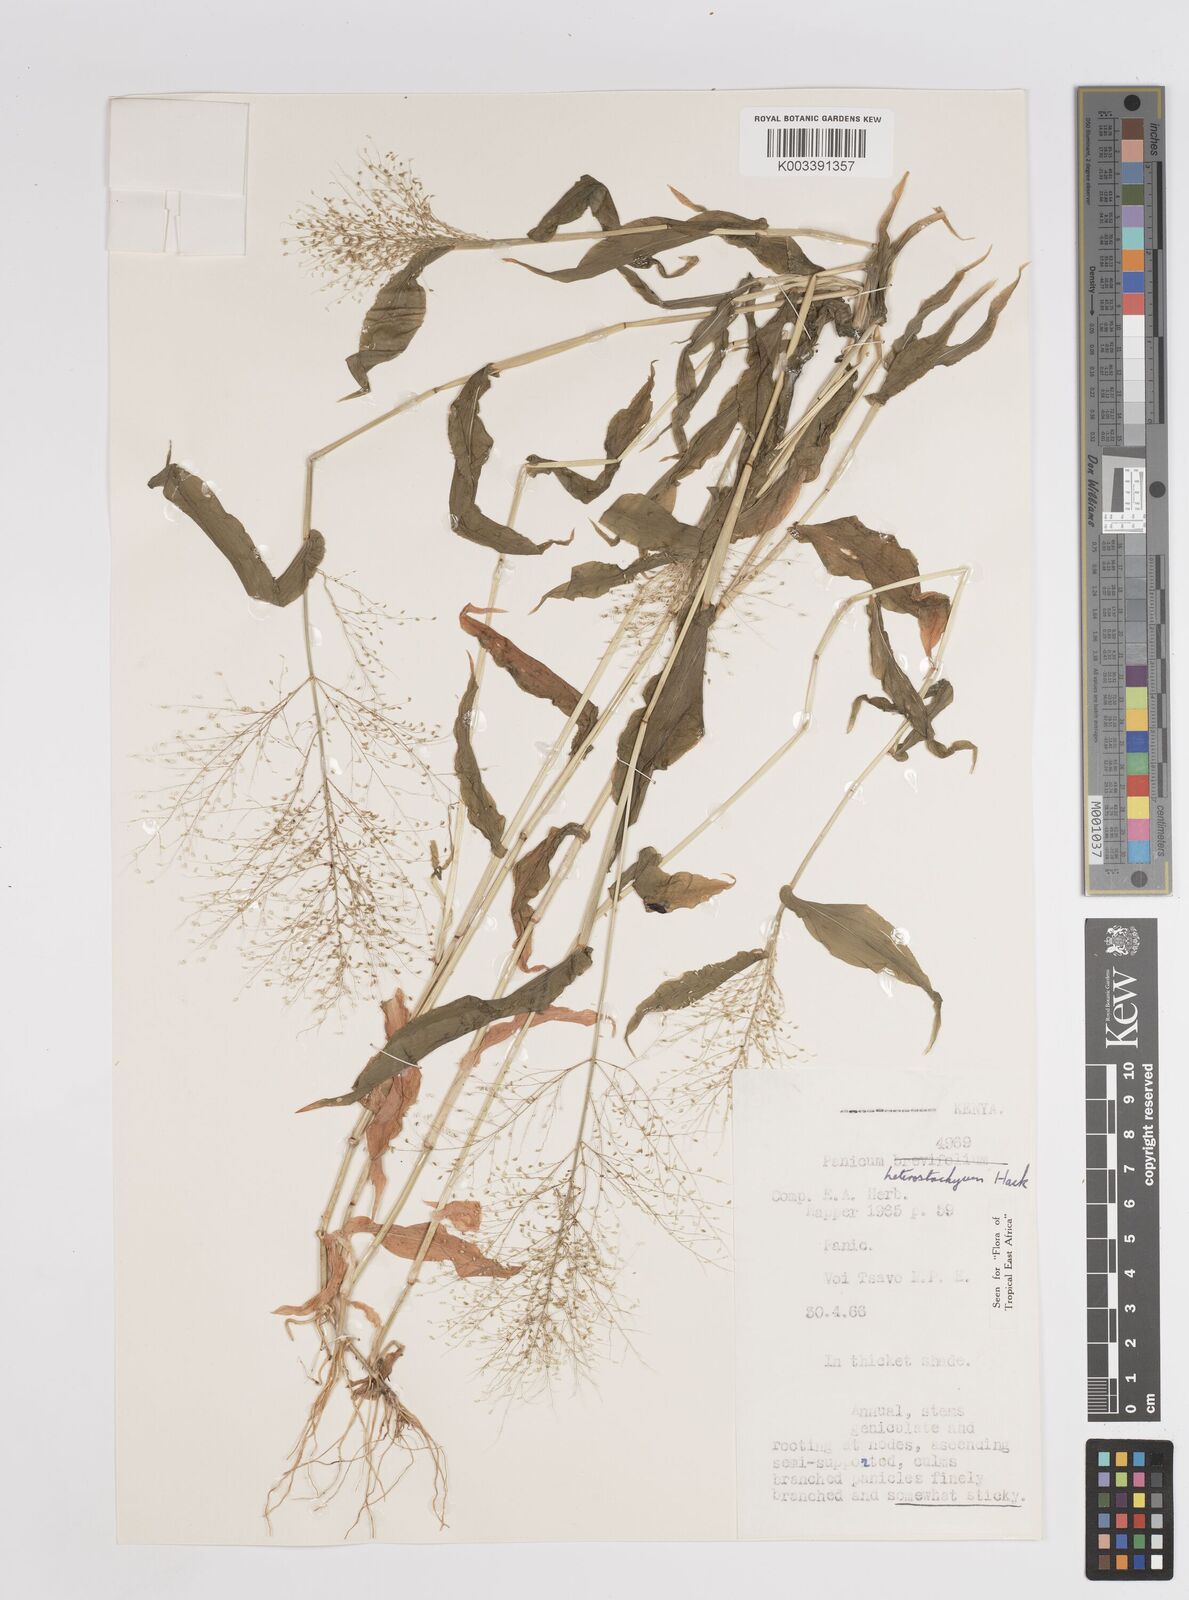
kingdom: Plantae
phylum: Tracheophyta
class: Liliopsida
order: Poales
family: Poaceae
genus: Panicum
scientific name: Panicum hirtum
